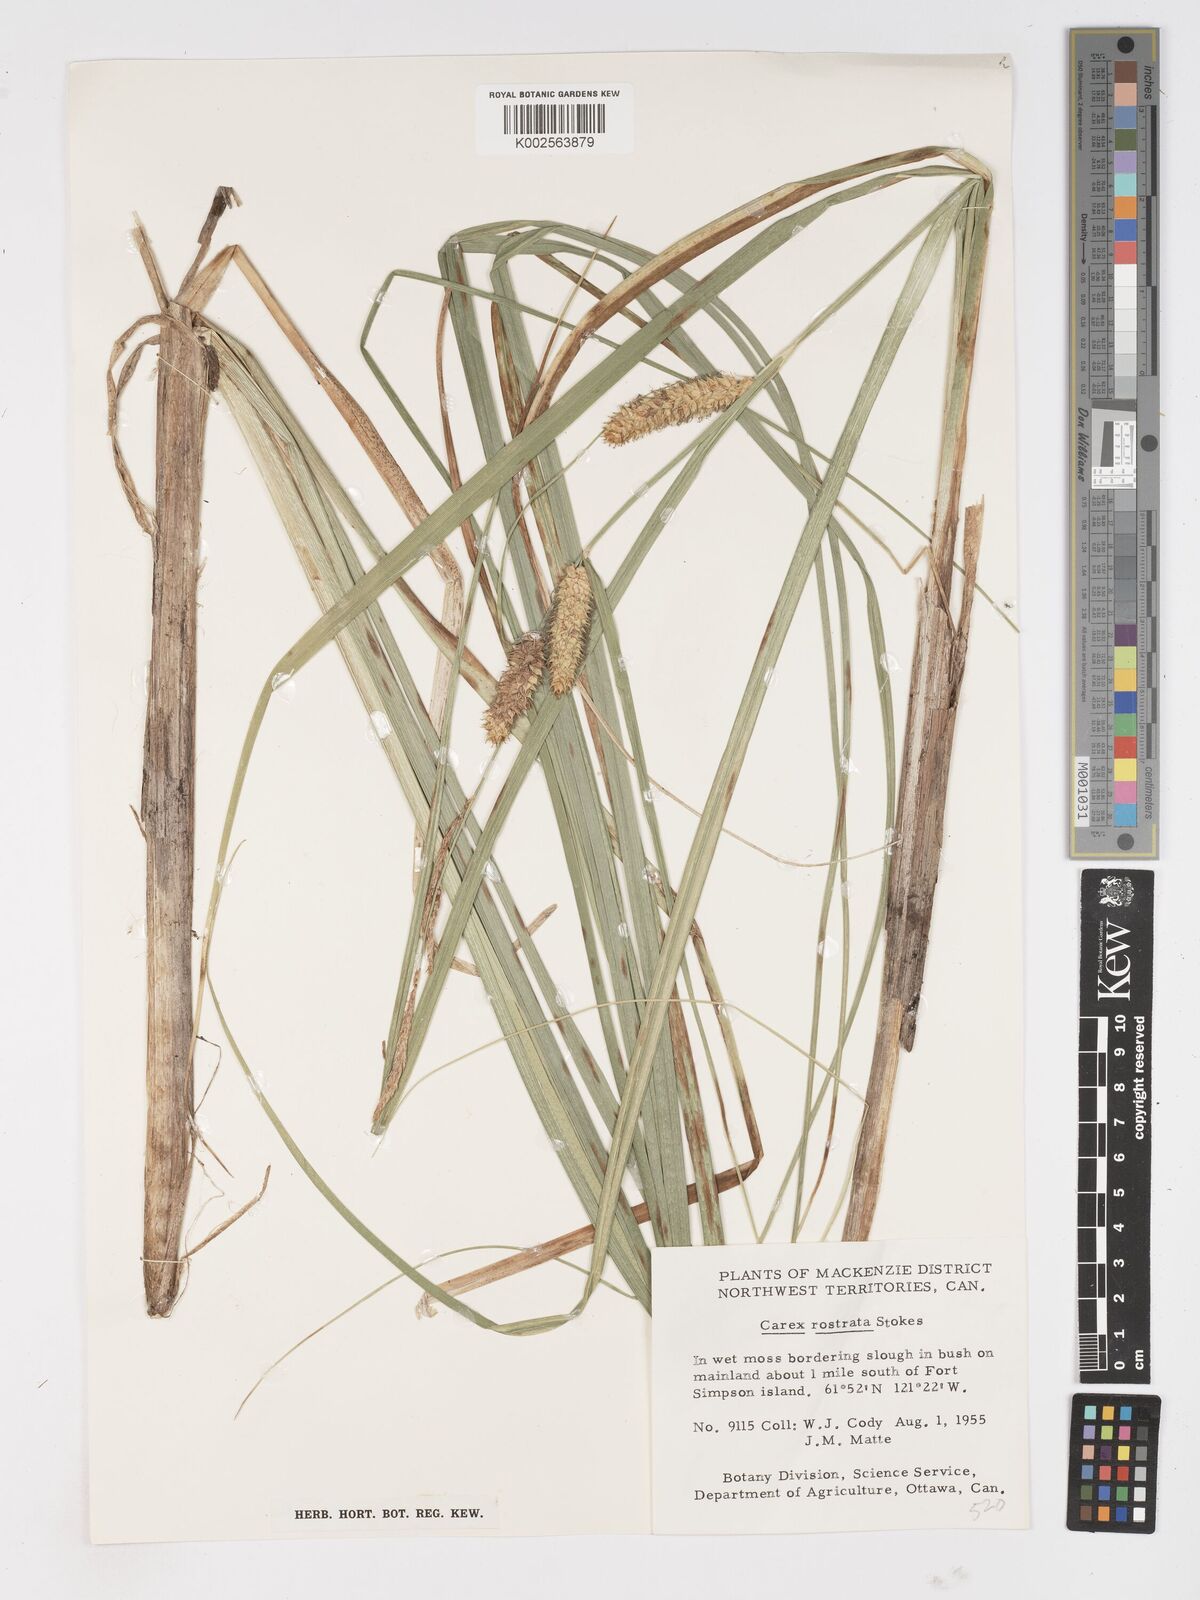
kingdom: Plantae
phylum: Tracheophyta
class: Liliopsida
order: Poales
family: Cyperaceae
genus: Carex
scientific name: Carex rostrata
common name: Bottle sedge
